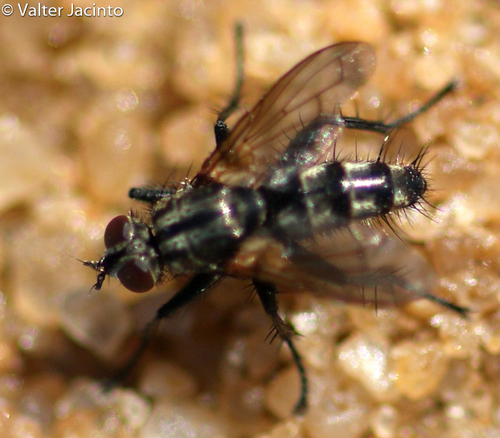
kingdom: Animalia
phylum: Arthropoda
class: Insecta
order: Diptera
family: Calliphoridae
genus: Stevenia
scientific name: Stevenia deceptoria
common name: Grizzled woodlouse-fly
